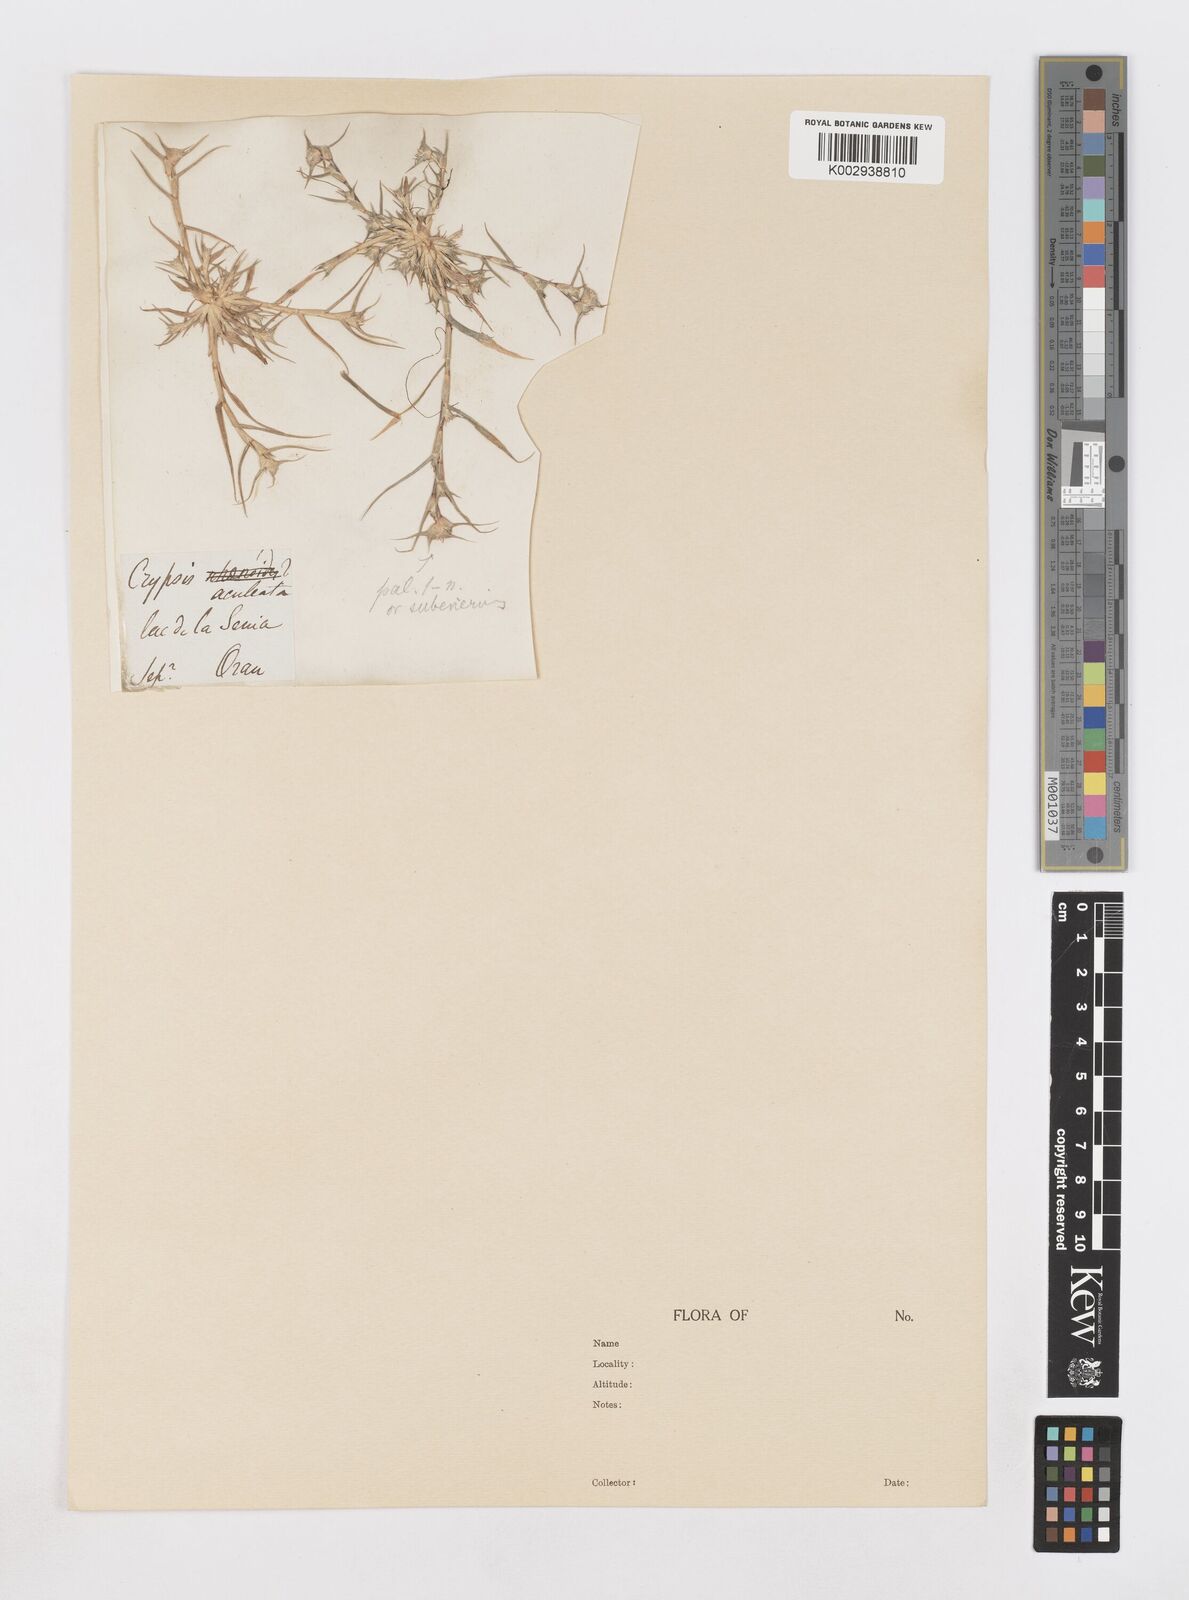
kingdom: Plantae
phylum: Tracheophyta
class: Liliopsida
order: Poales
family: Poaceae
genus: Sporobolus
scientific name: Sporobolus aculeatus
